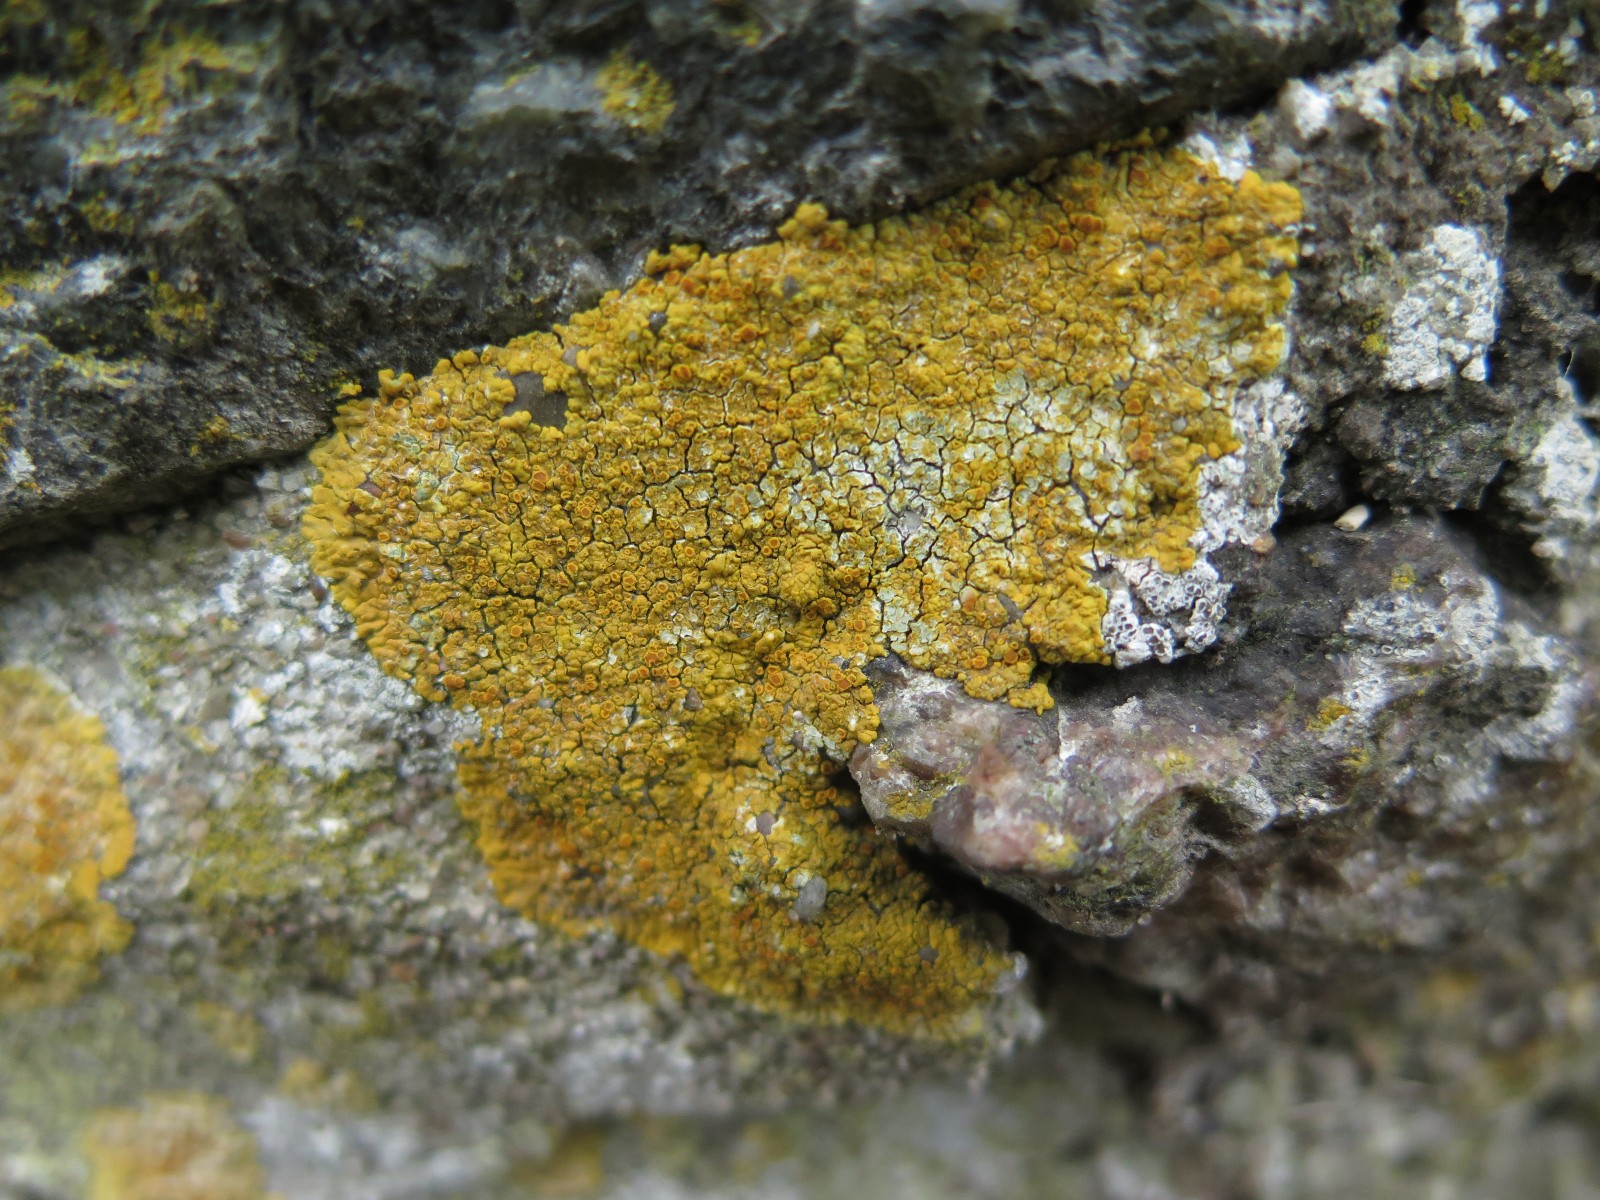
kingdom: Fungi
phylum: Ascomycota
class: Lecanoromycetes
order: Teloschistales
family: Teloschistaceae
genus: Variospora
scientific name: Variospora flavescens
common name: kalk-orangelav
